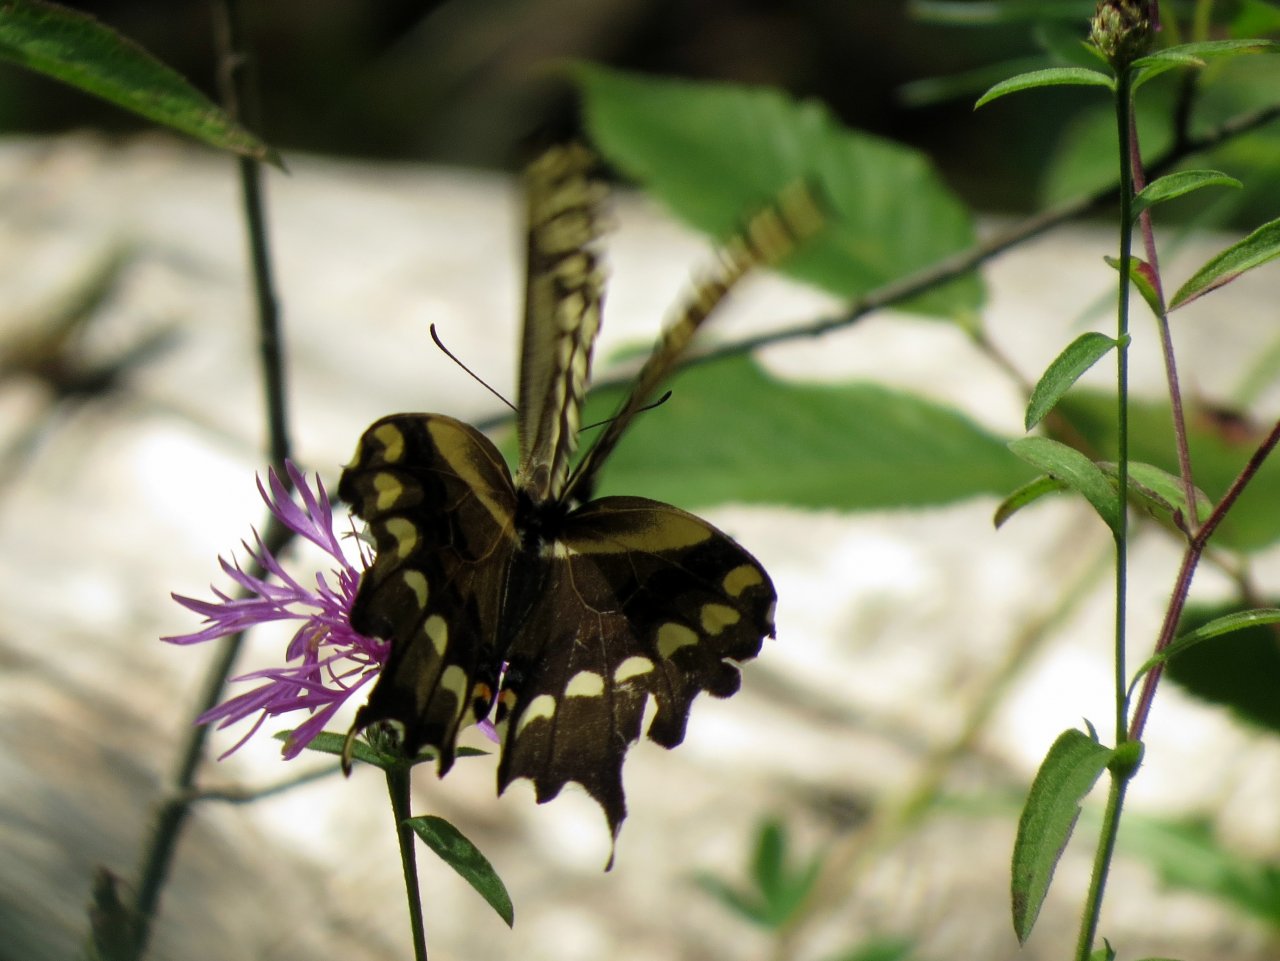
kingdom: Animalia
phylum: Arthropoda
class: Insecta
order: Lepidoptera
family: Papilionidae
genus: Papilio
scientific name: Papilio cresphontes
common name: Eastern Giant Swallowtail
